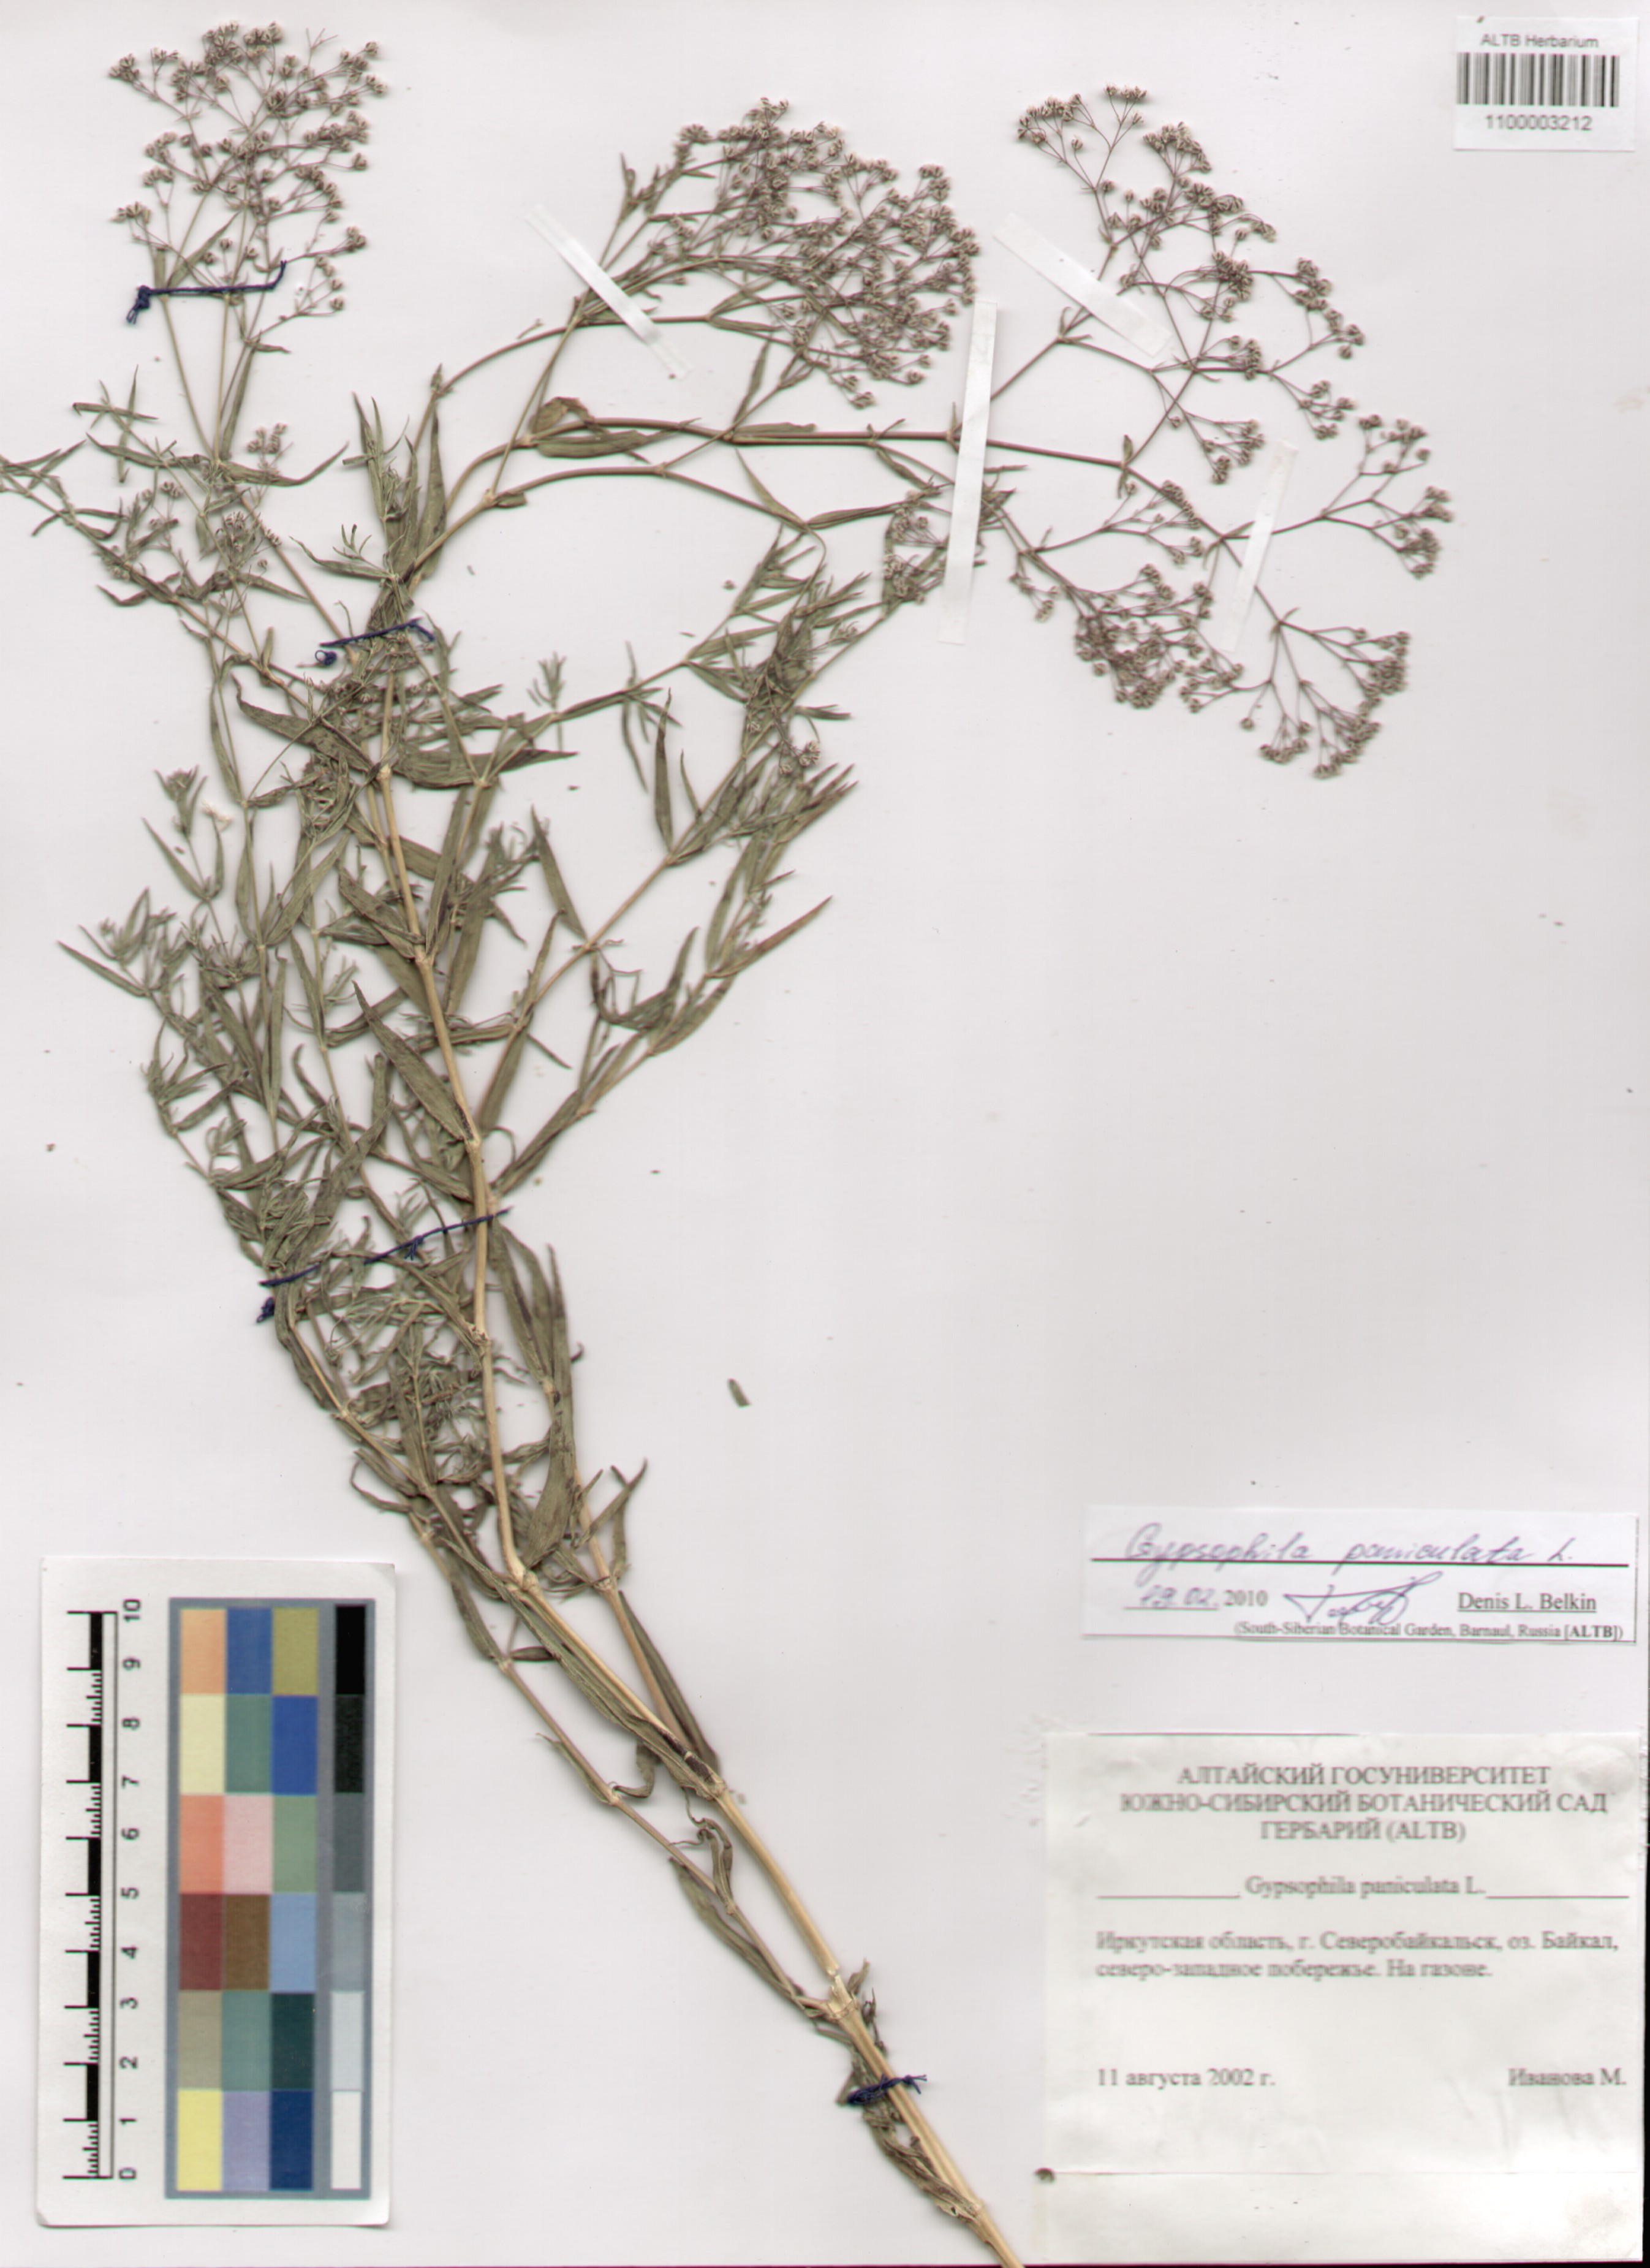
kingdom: Plantae
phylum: Tracheophyta
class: Magnoliopsida
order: Caryophyllales
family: Caryophyllaceae
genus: Gypsophila
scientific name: Gypsophila paniculata
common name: Baby's-breath
